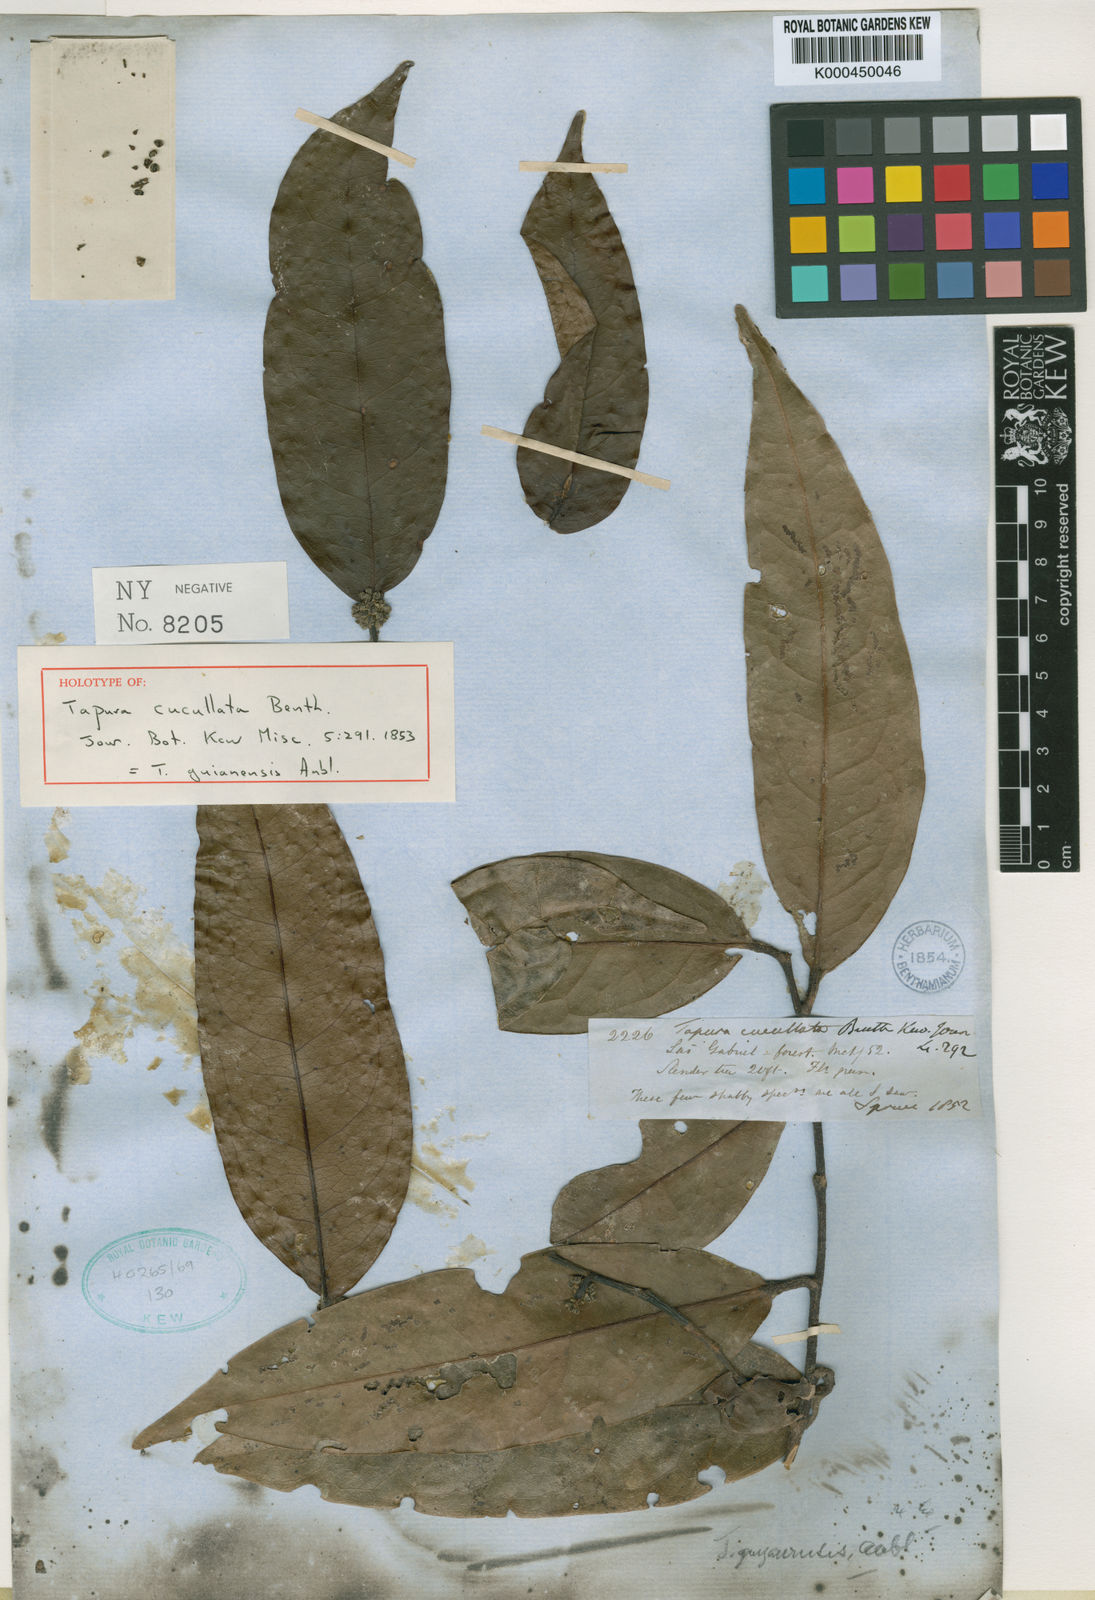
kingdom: Plantae
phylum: Tracheophyta
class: Magnoliopsida
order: Malpighiales
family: Dichapetalaceae
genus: Tapura
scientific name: Tapura guianensis
